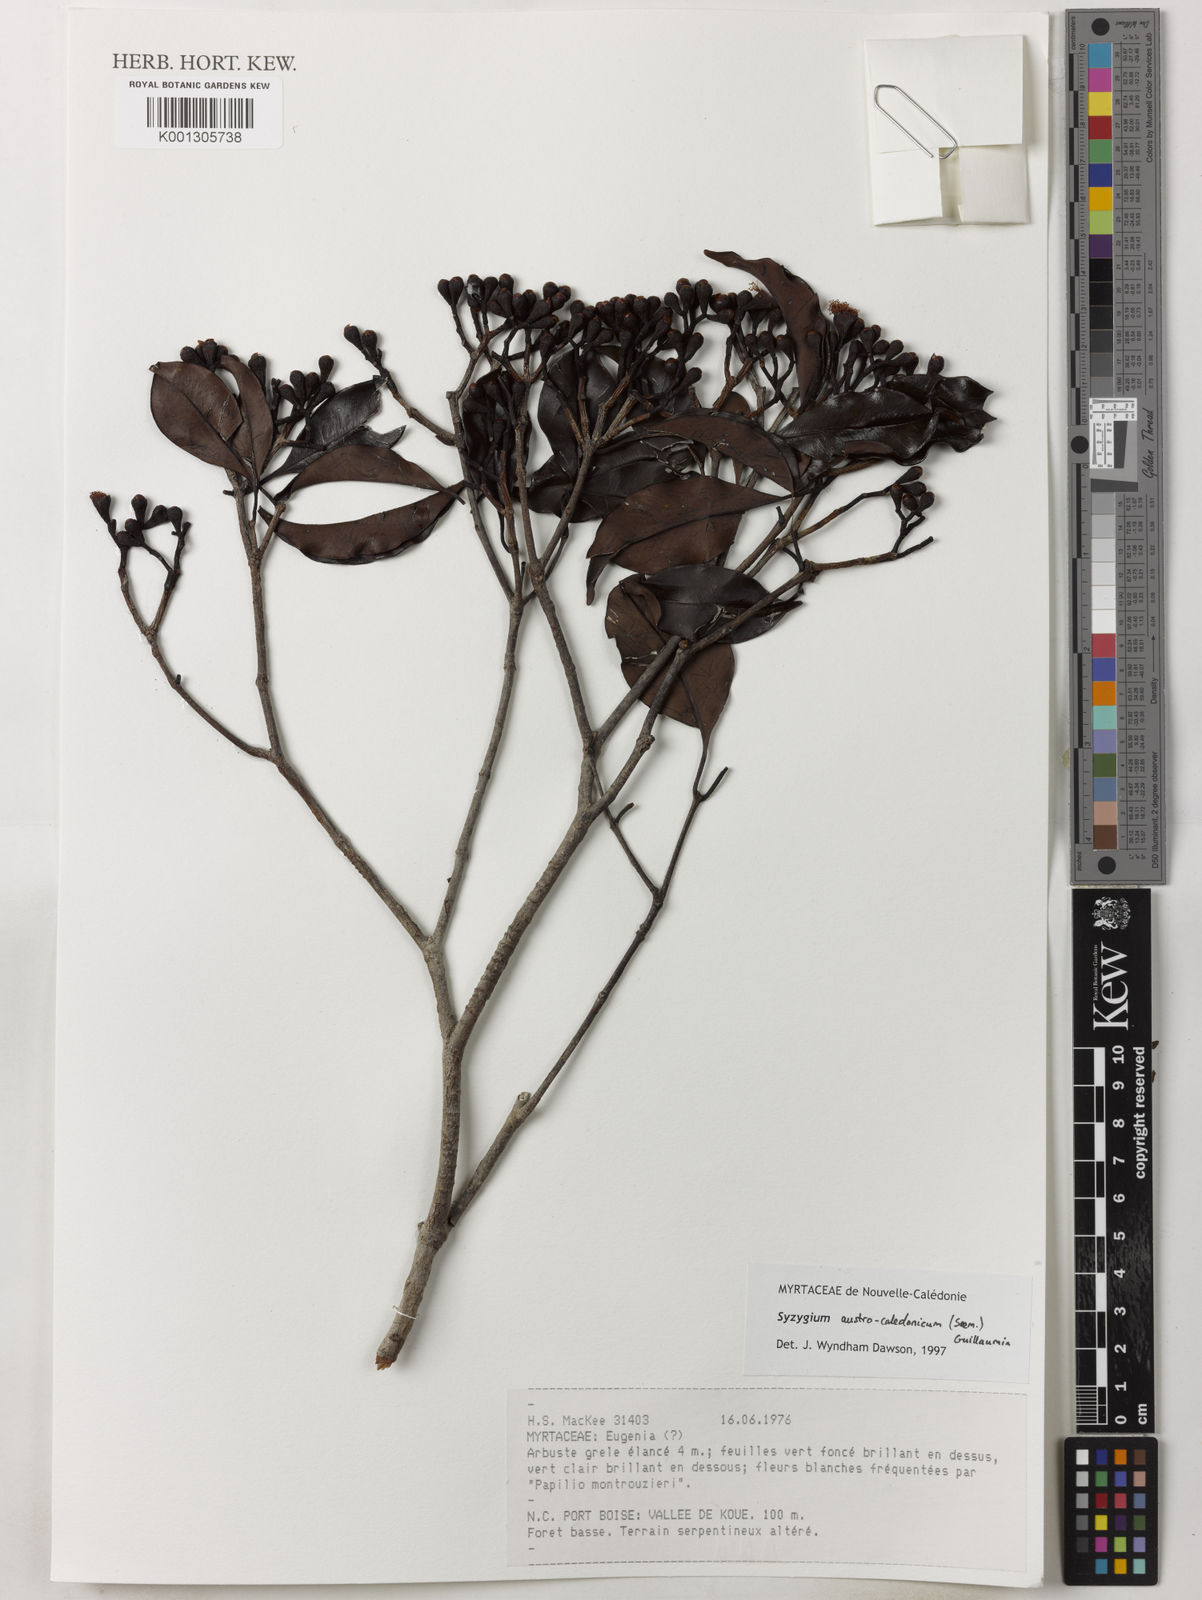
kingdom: Plantae
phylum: Tracheophyta
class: Magnoliopsida
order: Myrtales
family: Myrtaceae
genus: Syzygium
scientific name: Syzygium austrocaledonicum
